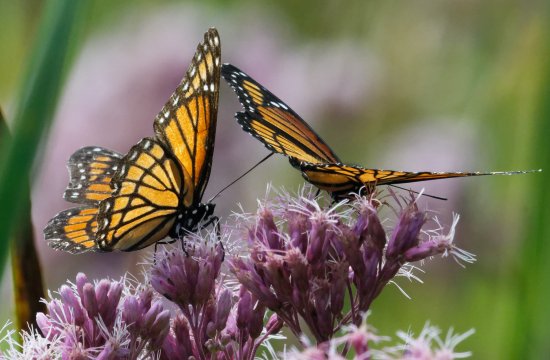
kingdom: Animalia
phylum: Arthropoda
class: Insecta
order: Lepidoptera
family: Nymphalidae
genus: Limenitis
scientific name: Limenitis archippus
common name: Viceroy
